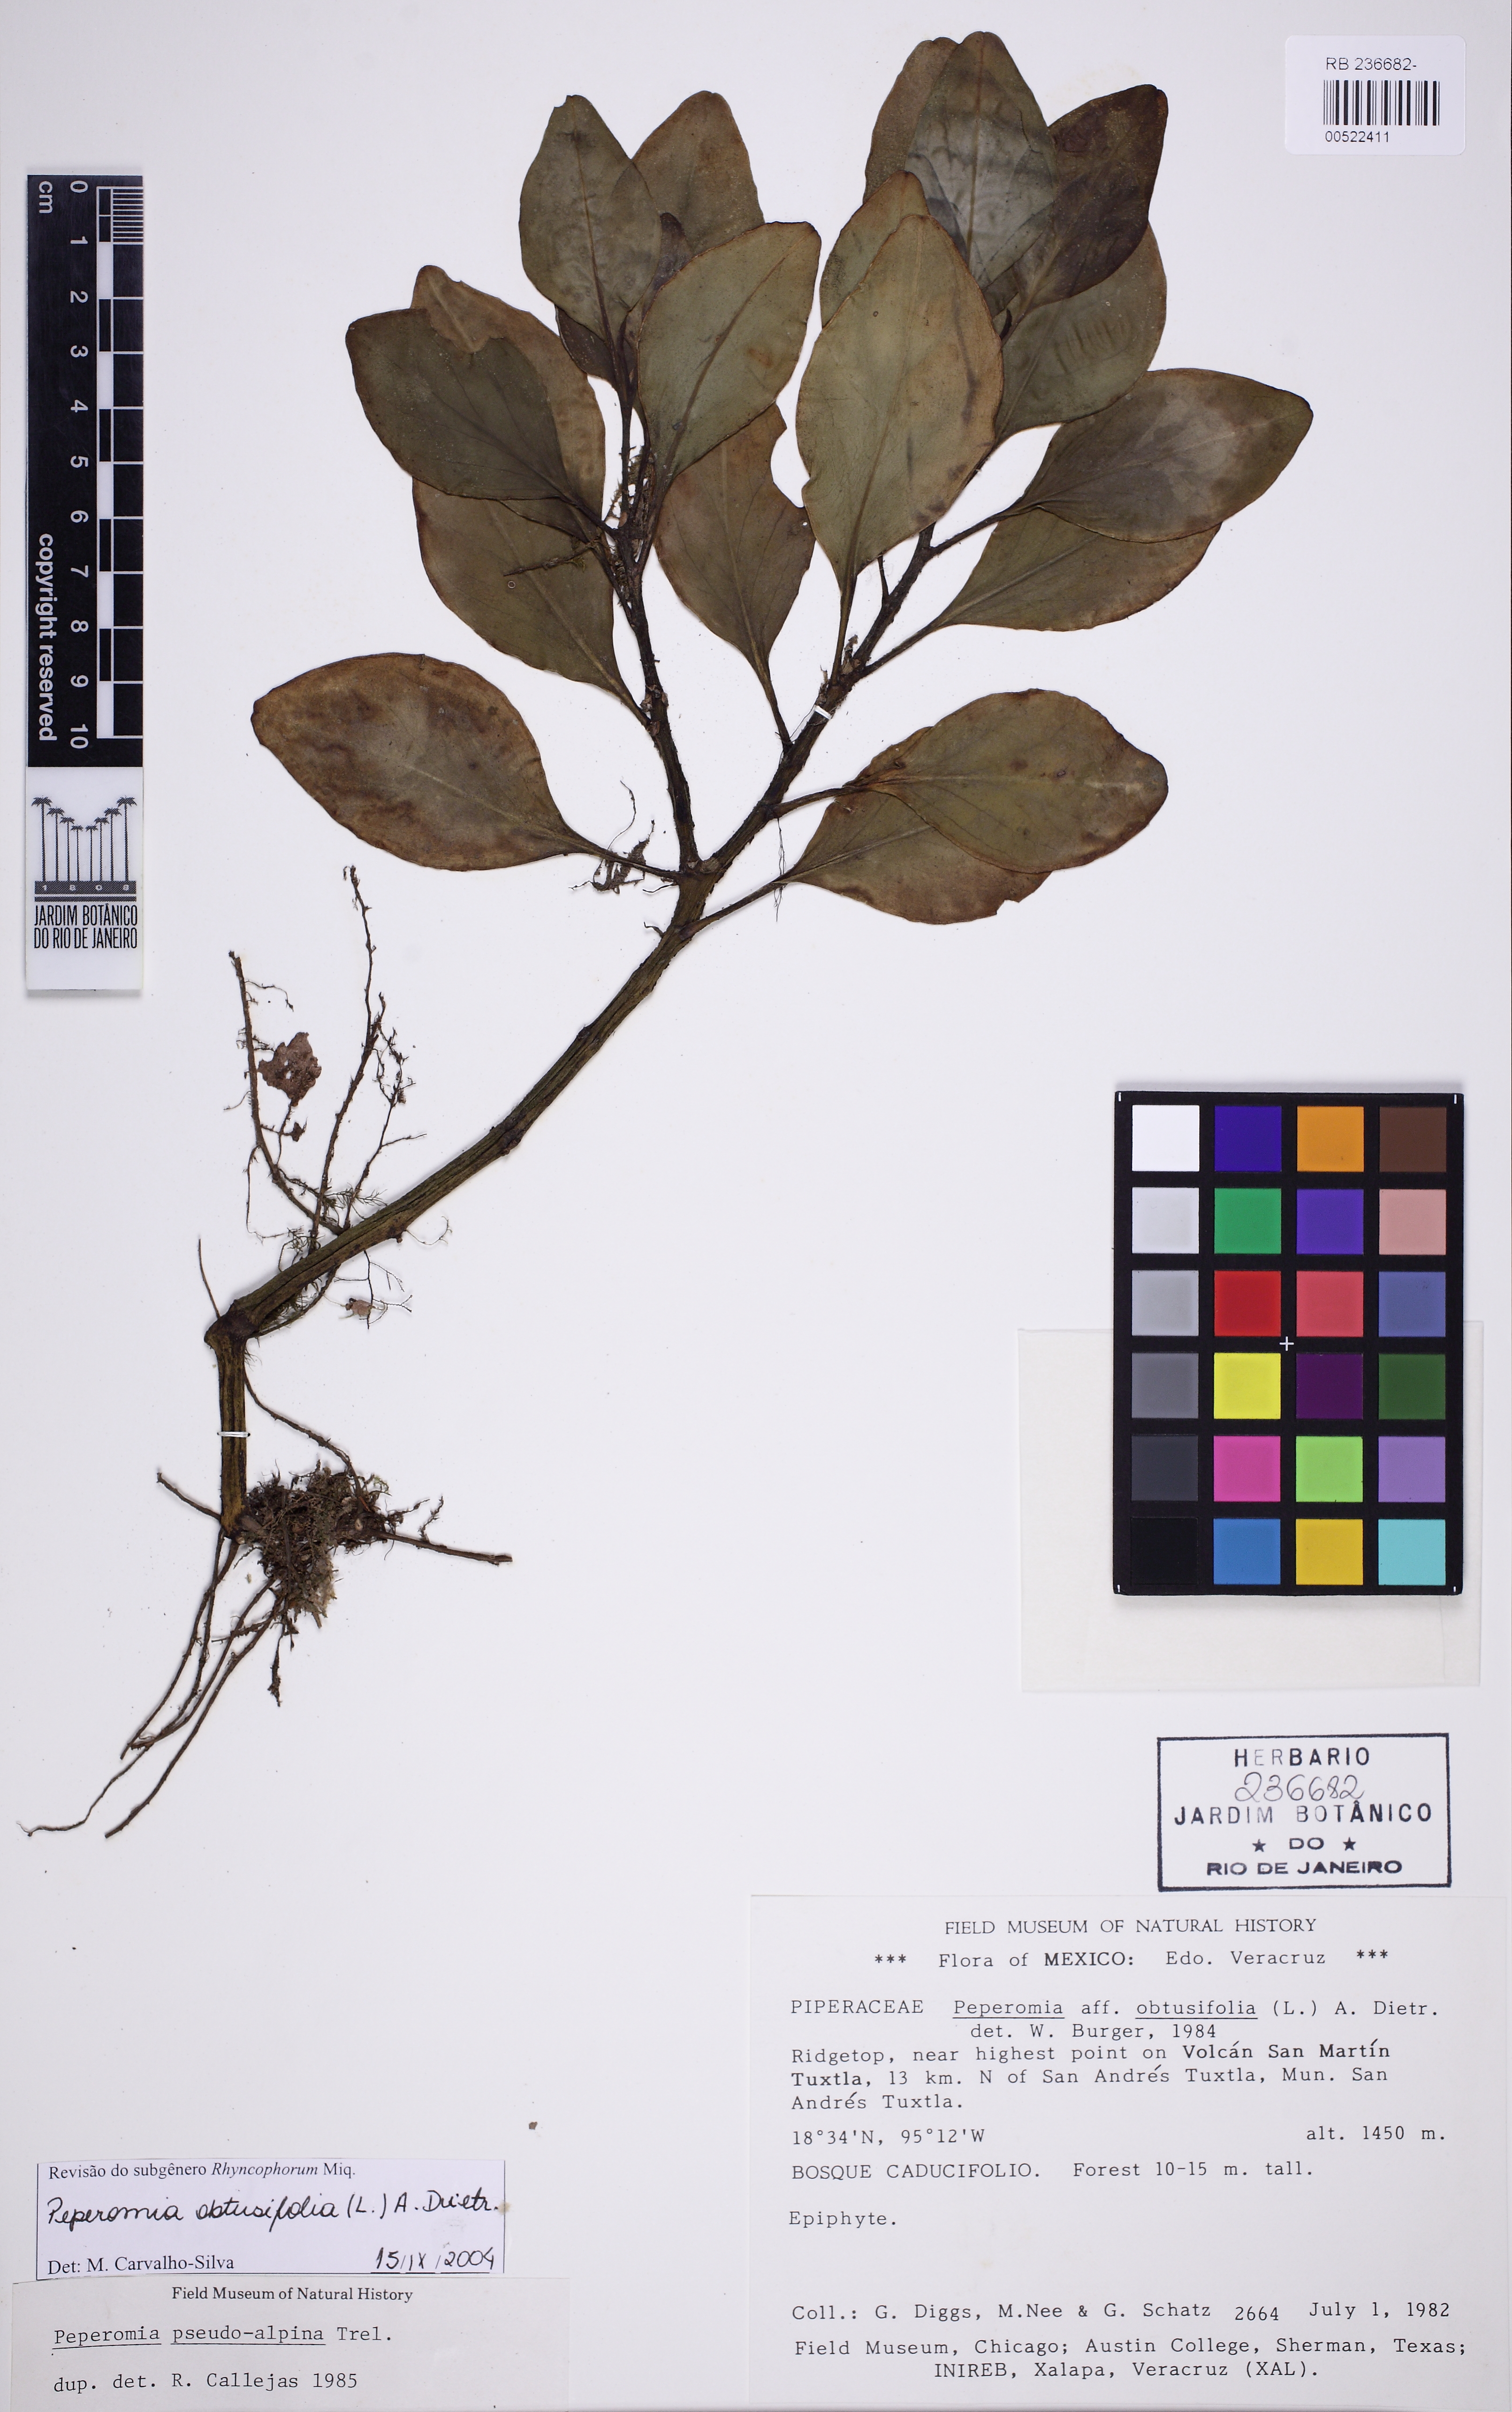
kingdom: Plantae
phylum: Tracheophyta
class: Magnoliopsida
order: Piperales
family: Piperaceae
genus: Peperomia
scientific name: Peperomia obtusifolia
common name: Baby rubberplant
